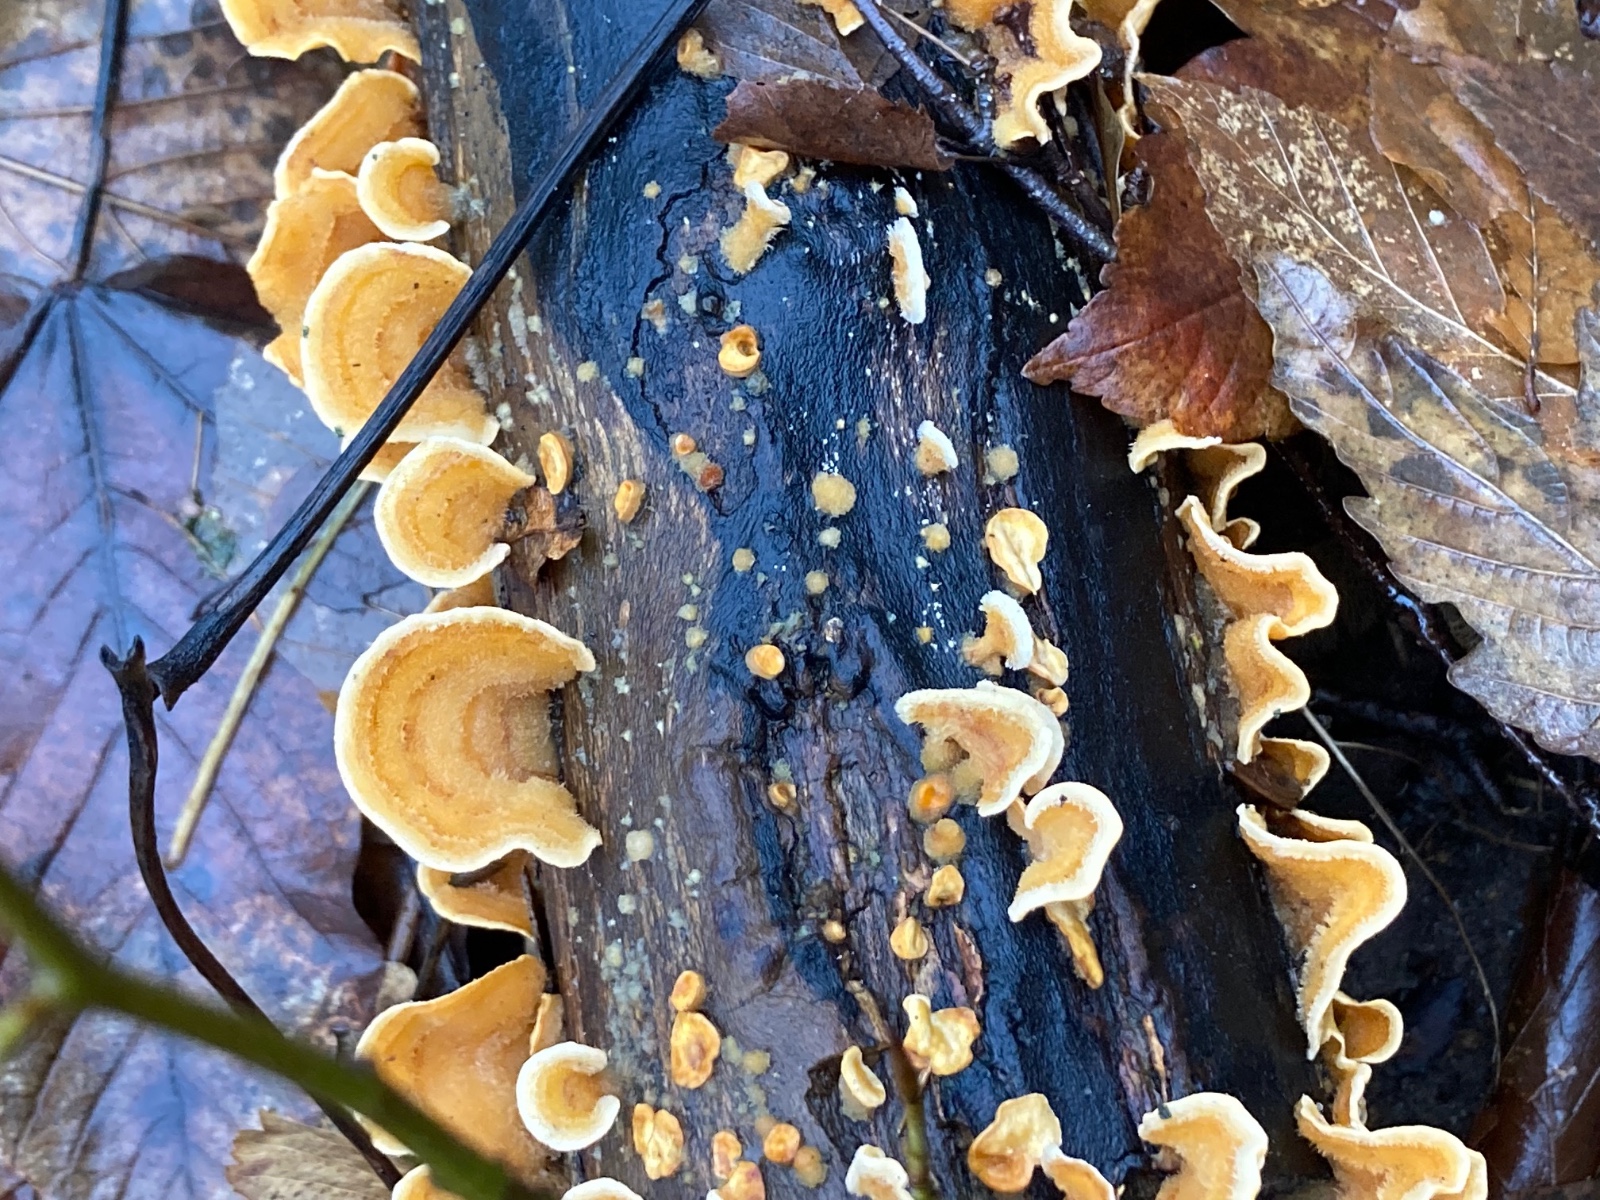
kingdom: Fungi
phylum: Basidiomycota
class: Agaricomycetes
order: Russulales
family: Stereaceae
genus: Stereum
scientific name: Stereum hirsutum
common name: håret lædersvamp
